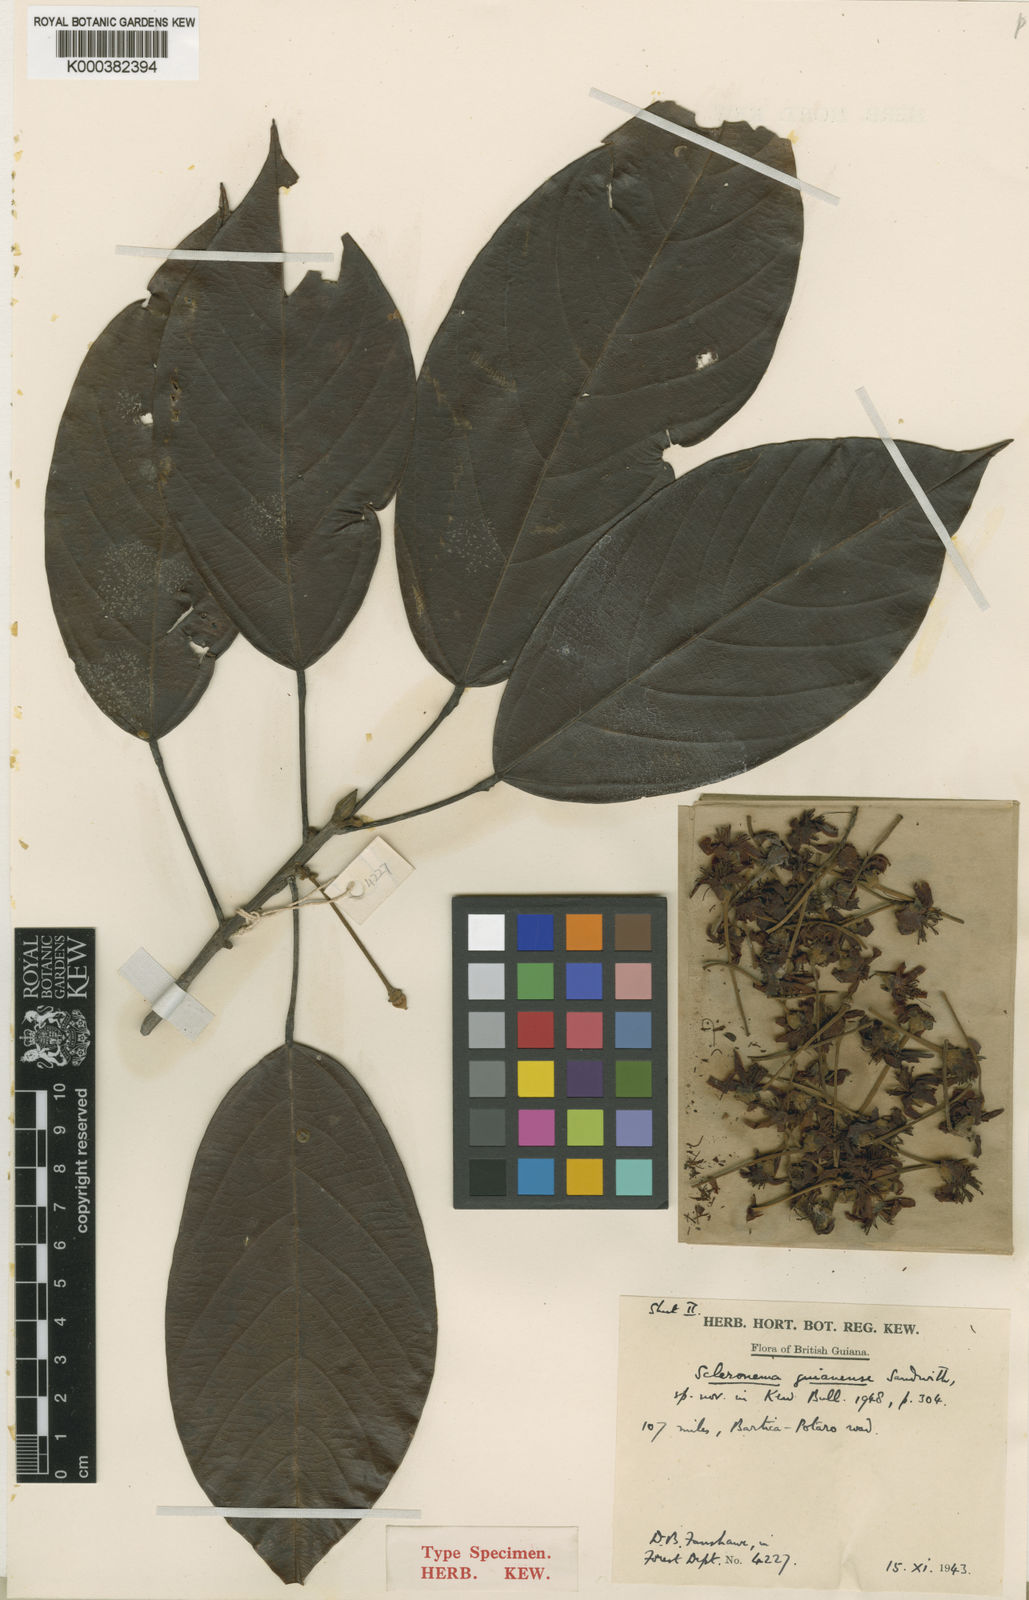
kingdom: Plantae
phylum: Tracheophyta
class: Magnoliopsida
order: Malvales
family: Malvaceae
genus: Scleronema
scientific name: Scleronema guianense
